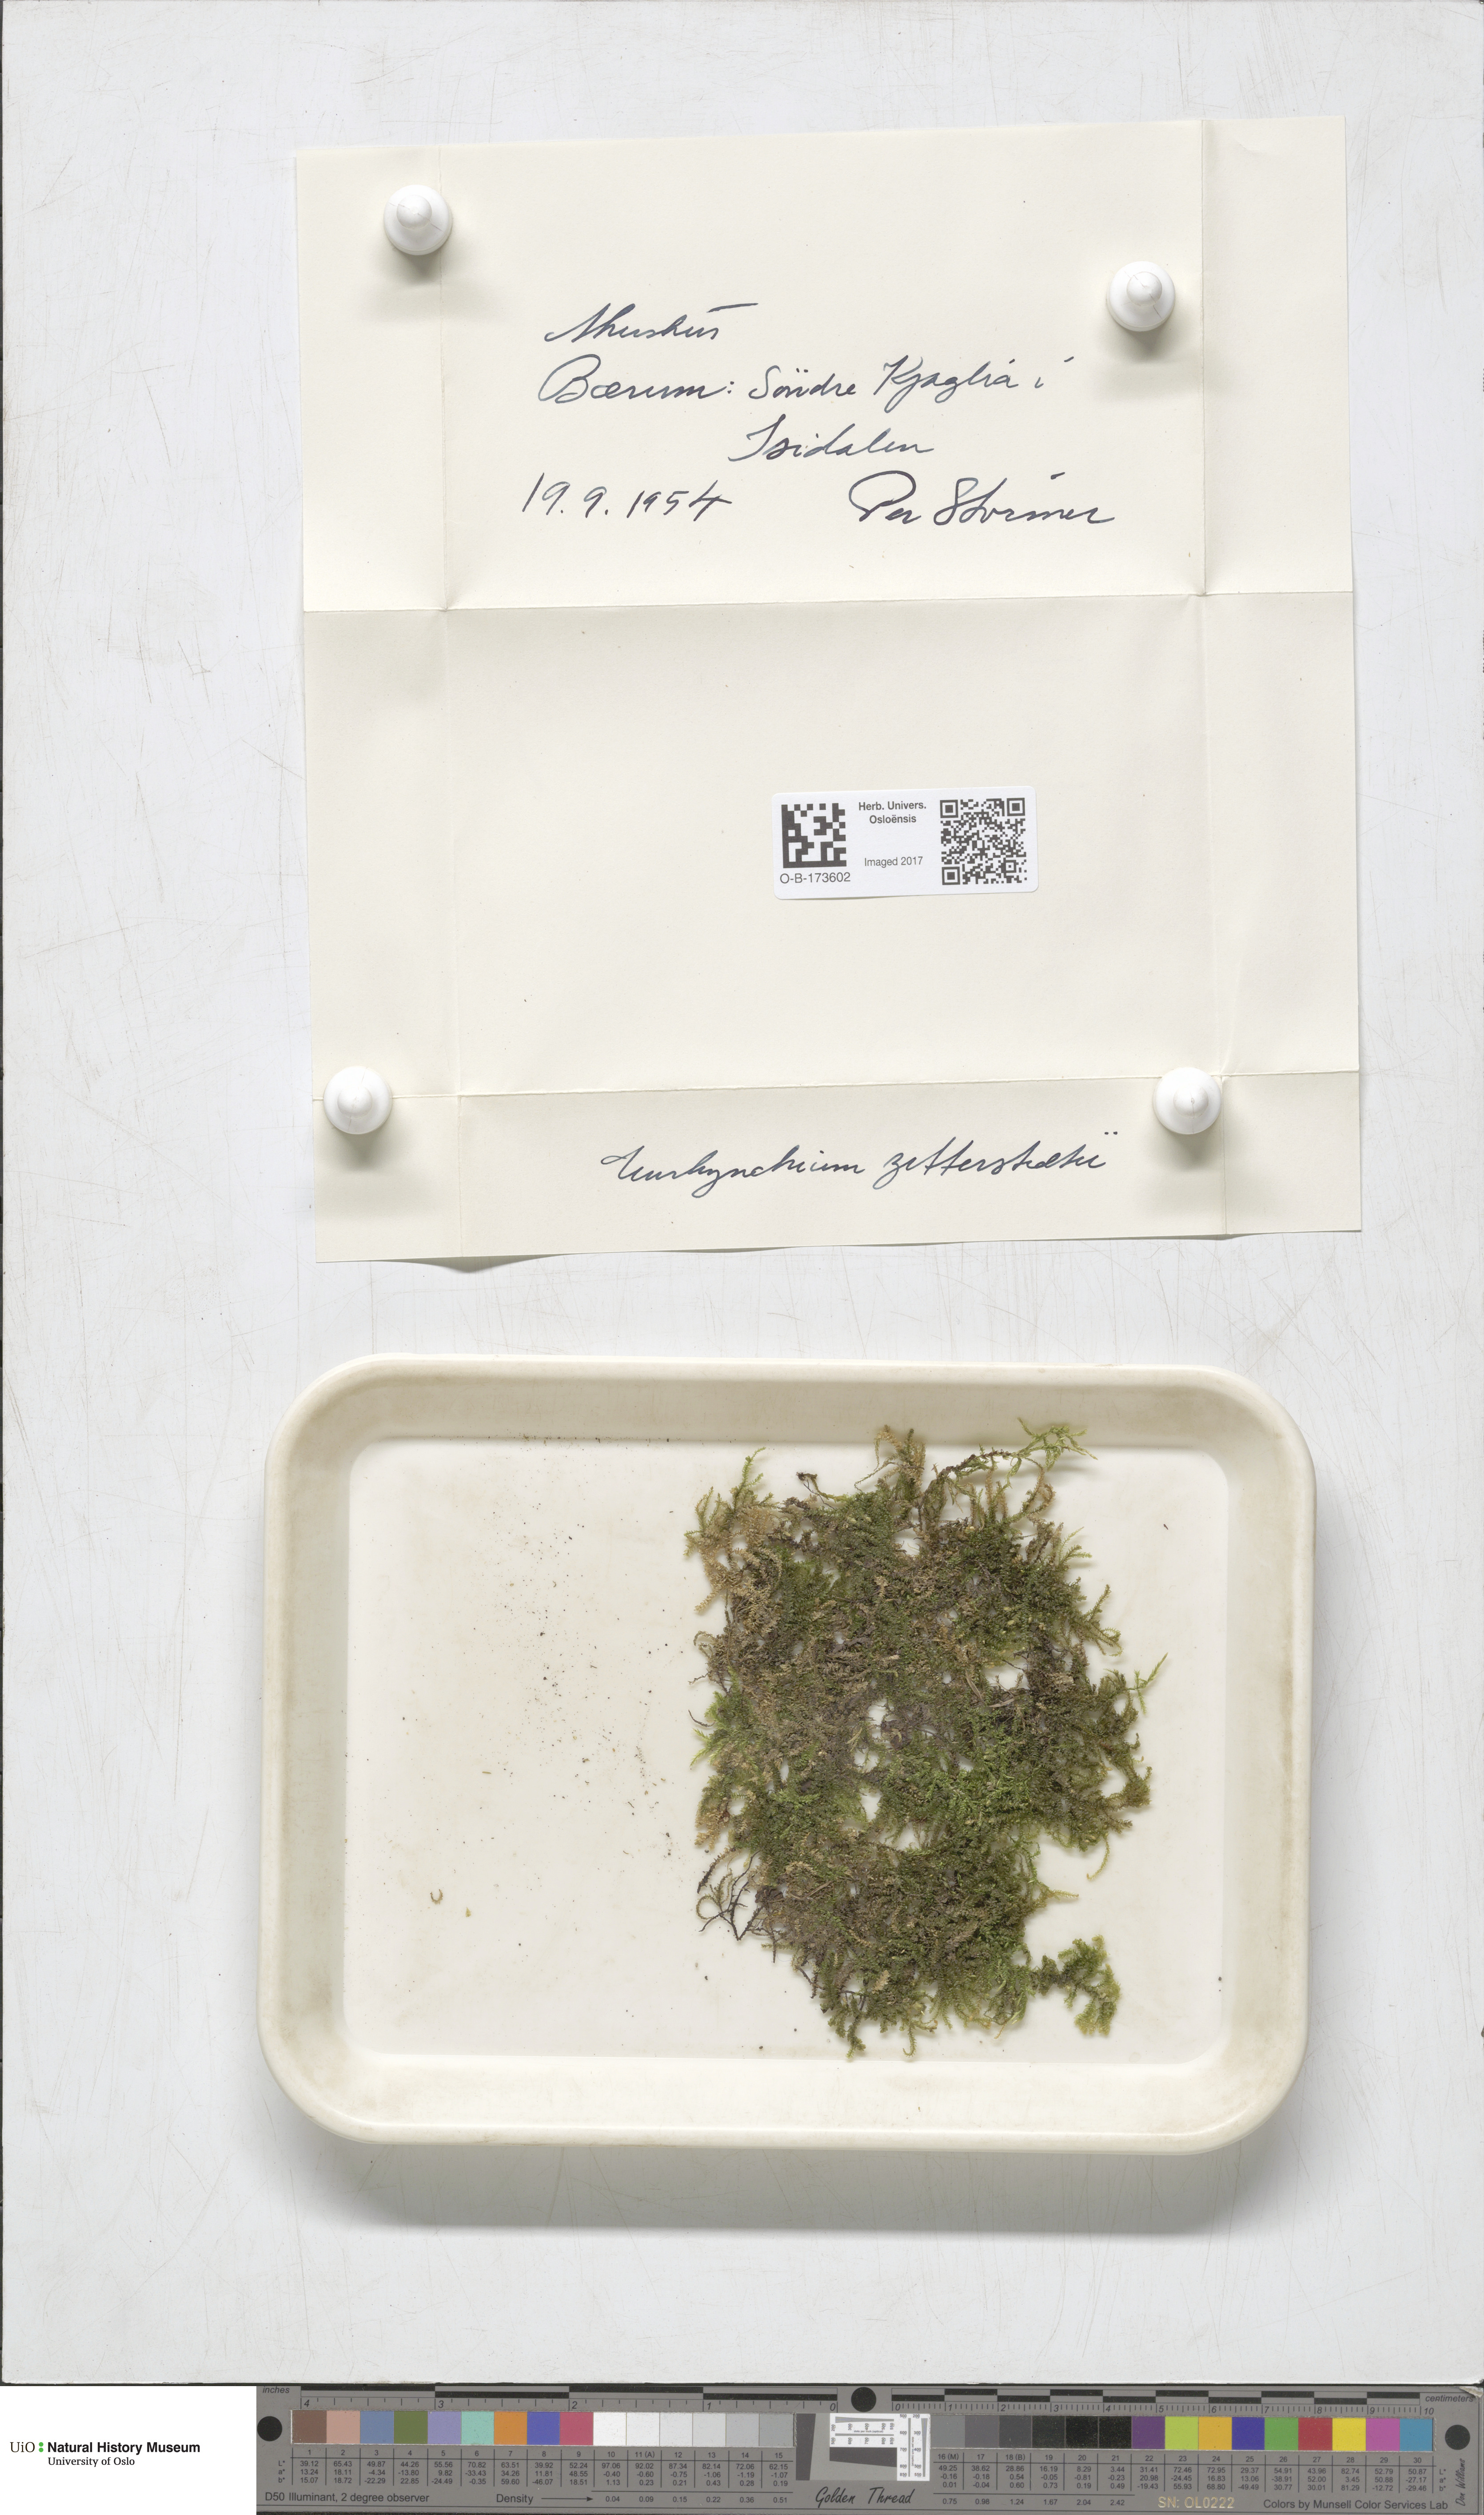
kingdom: Plantae
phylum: Bryophyta
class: Bryopsida
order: Hypnales
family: Brachytheciaceae
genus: Eurhynchium
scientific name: Eurhynchium angustirete
